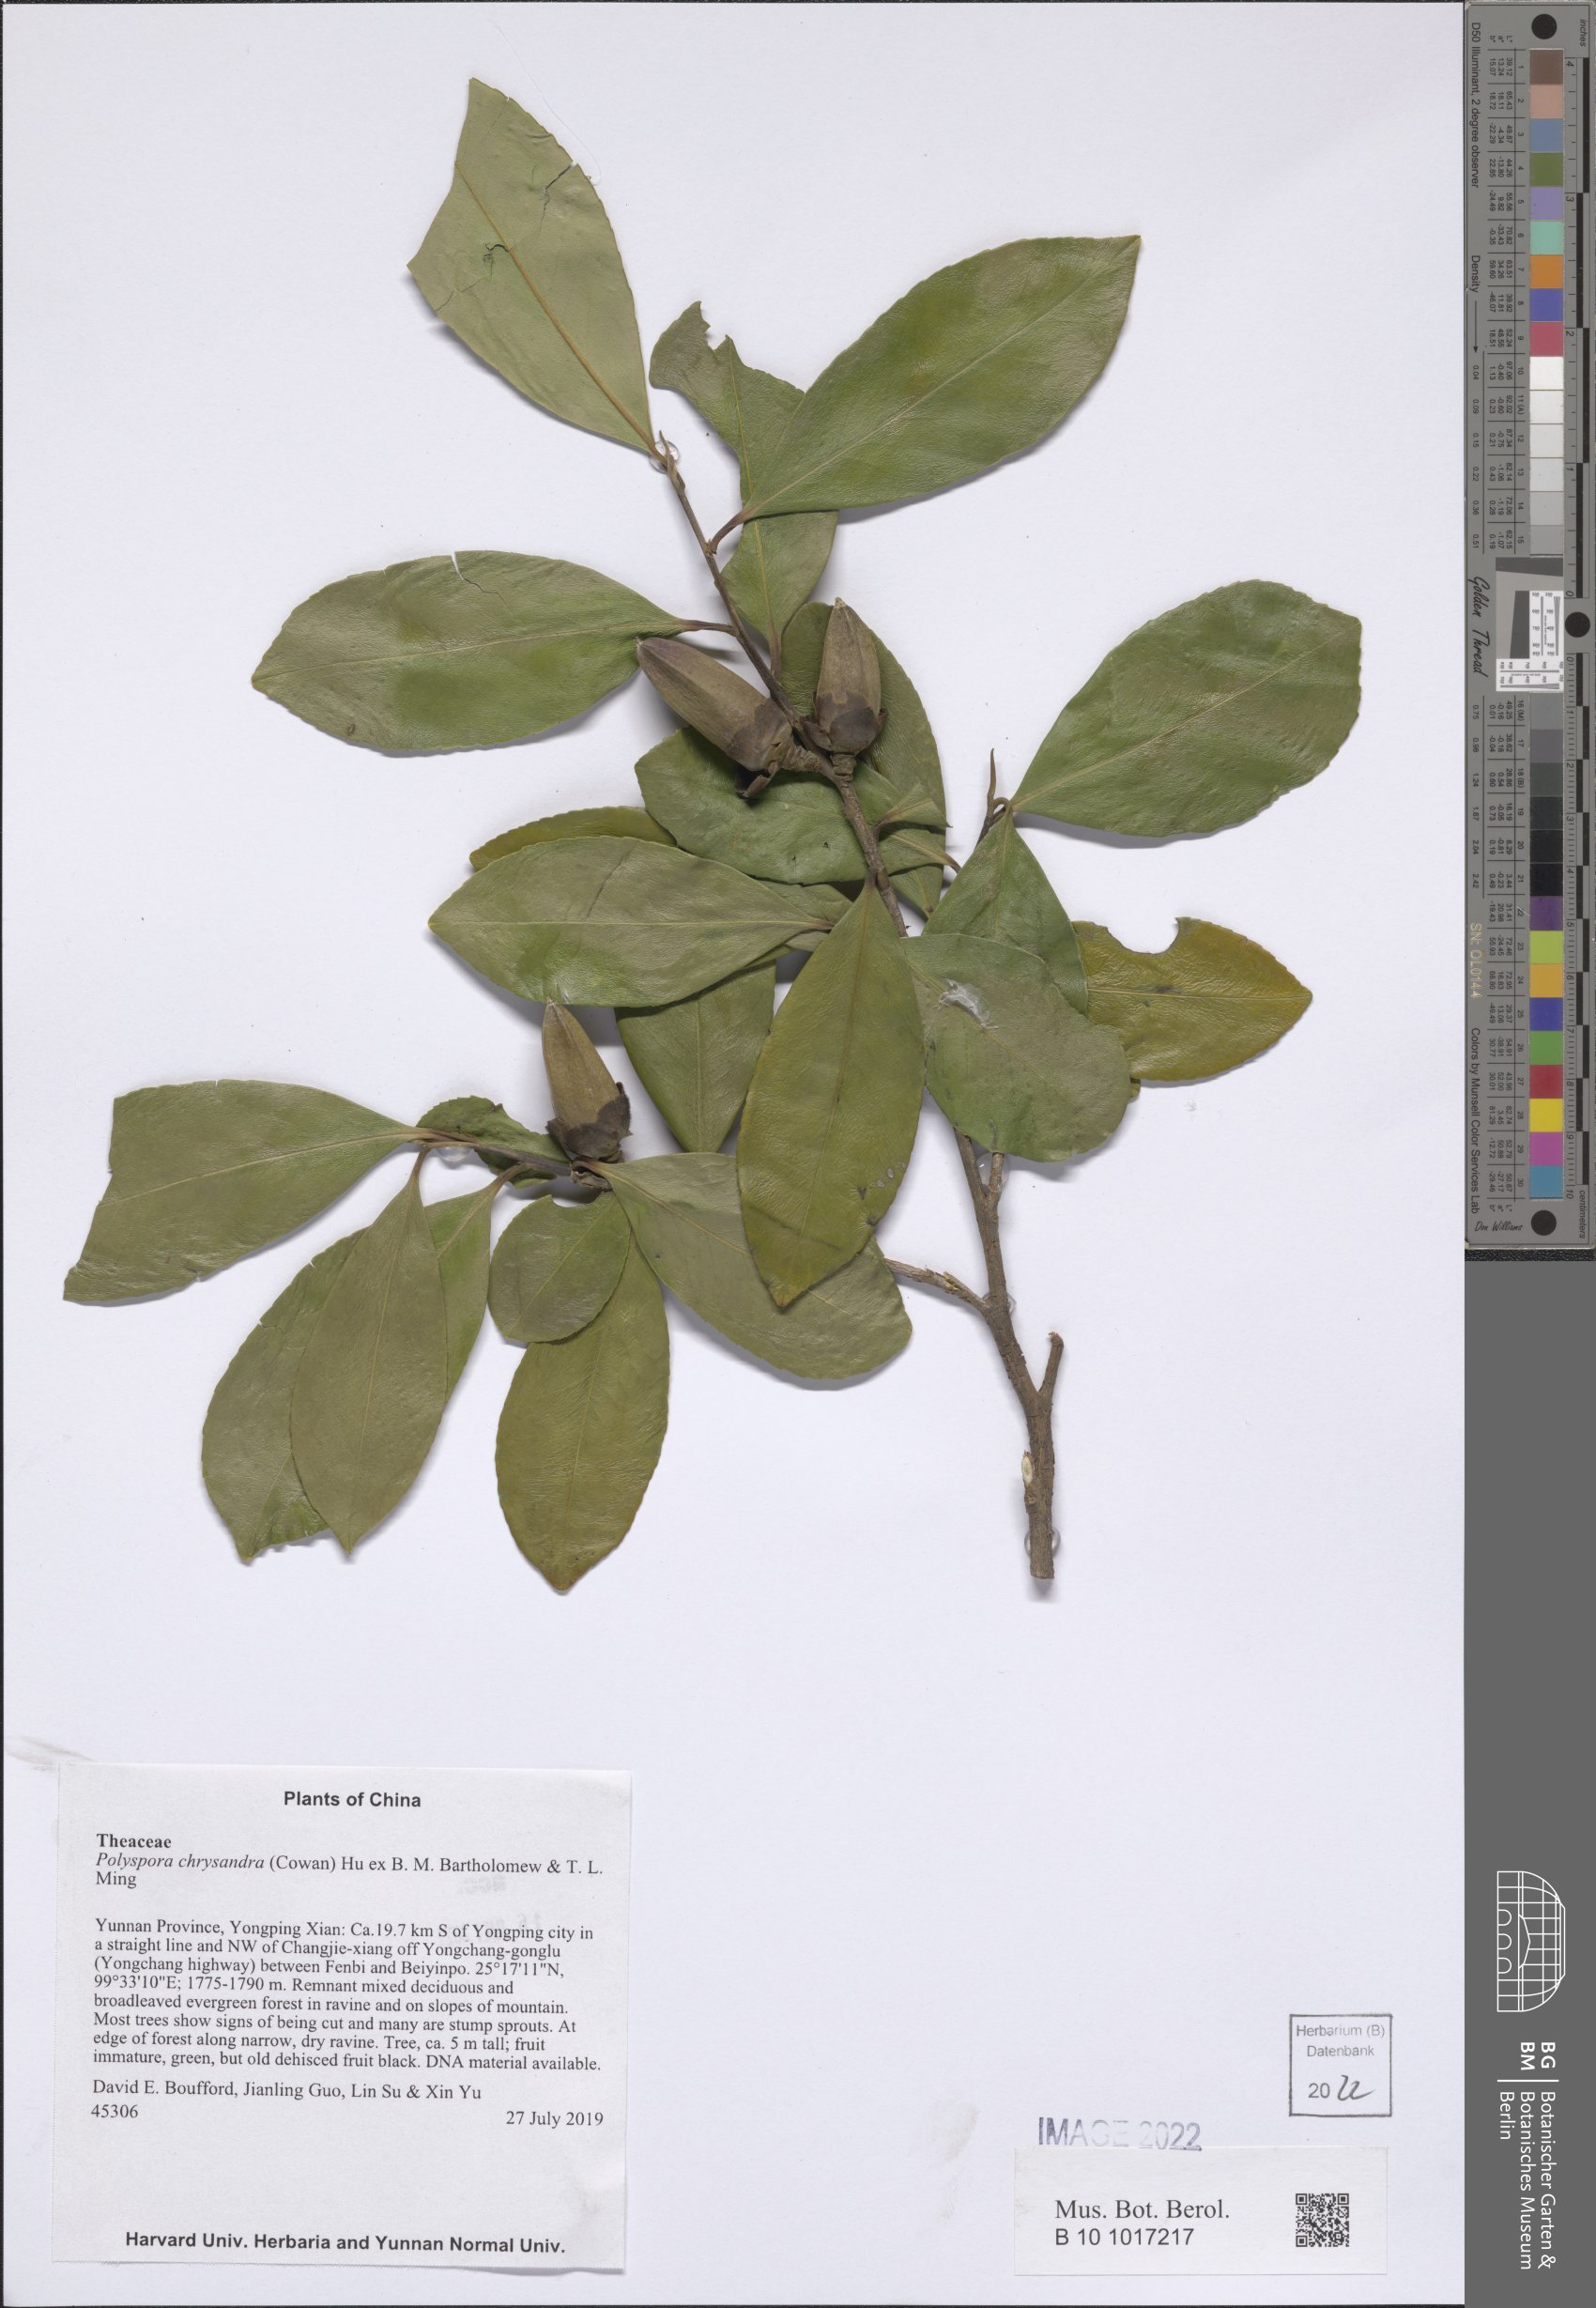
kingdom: Plantae
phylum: Tracheophyta
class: Magnoliopsida
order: Ericales
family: Theaceae
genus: Polyspora
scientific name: Polyspora chrysandra
